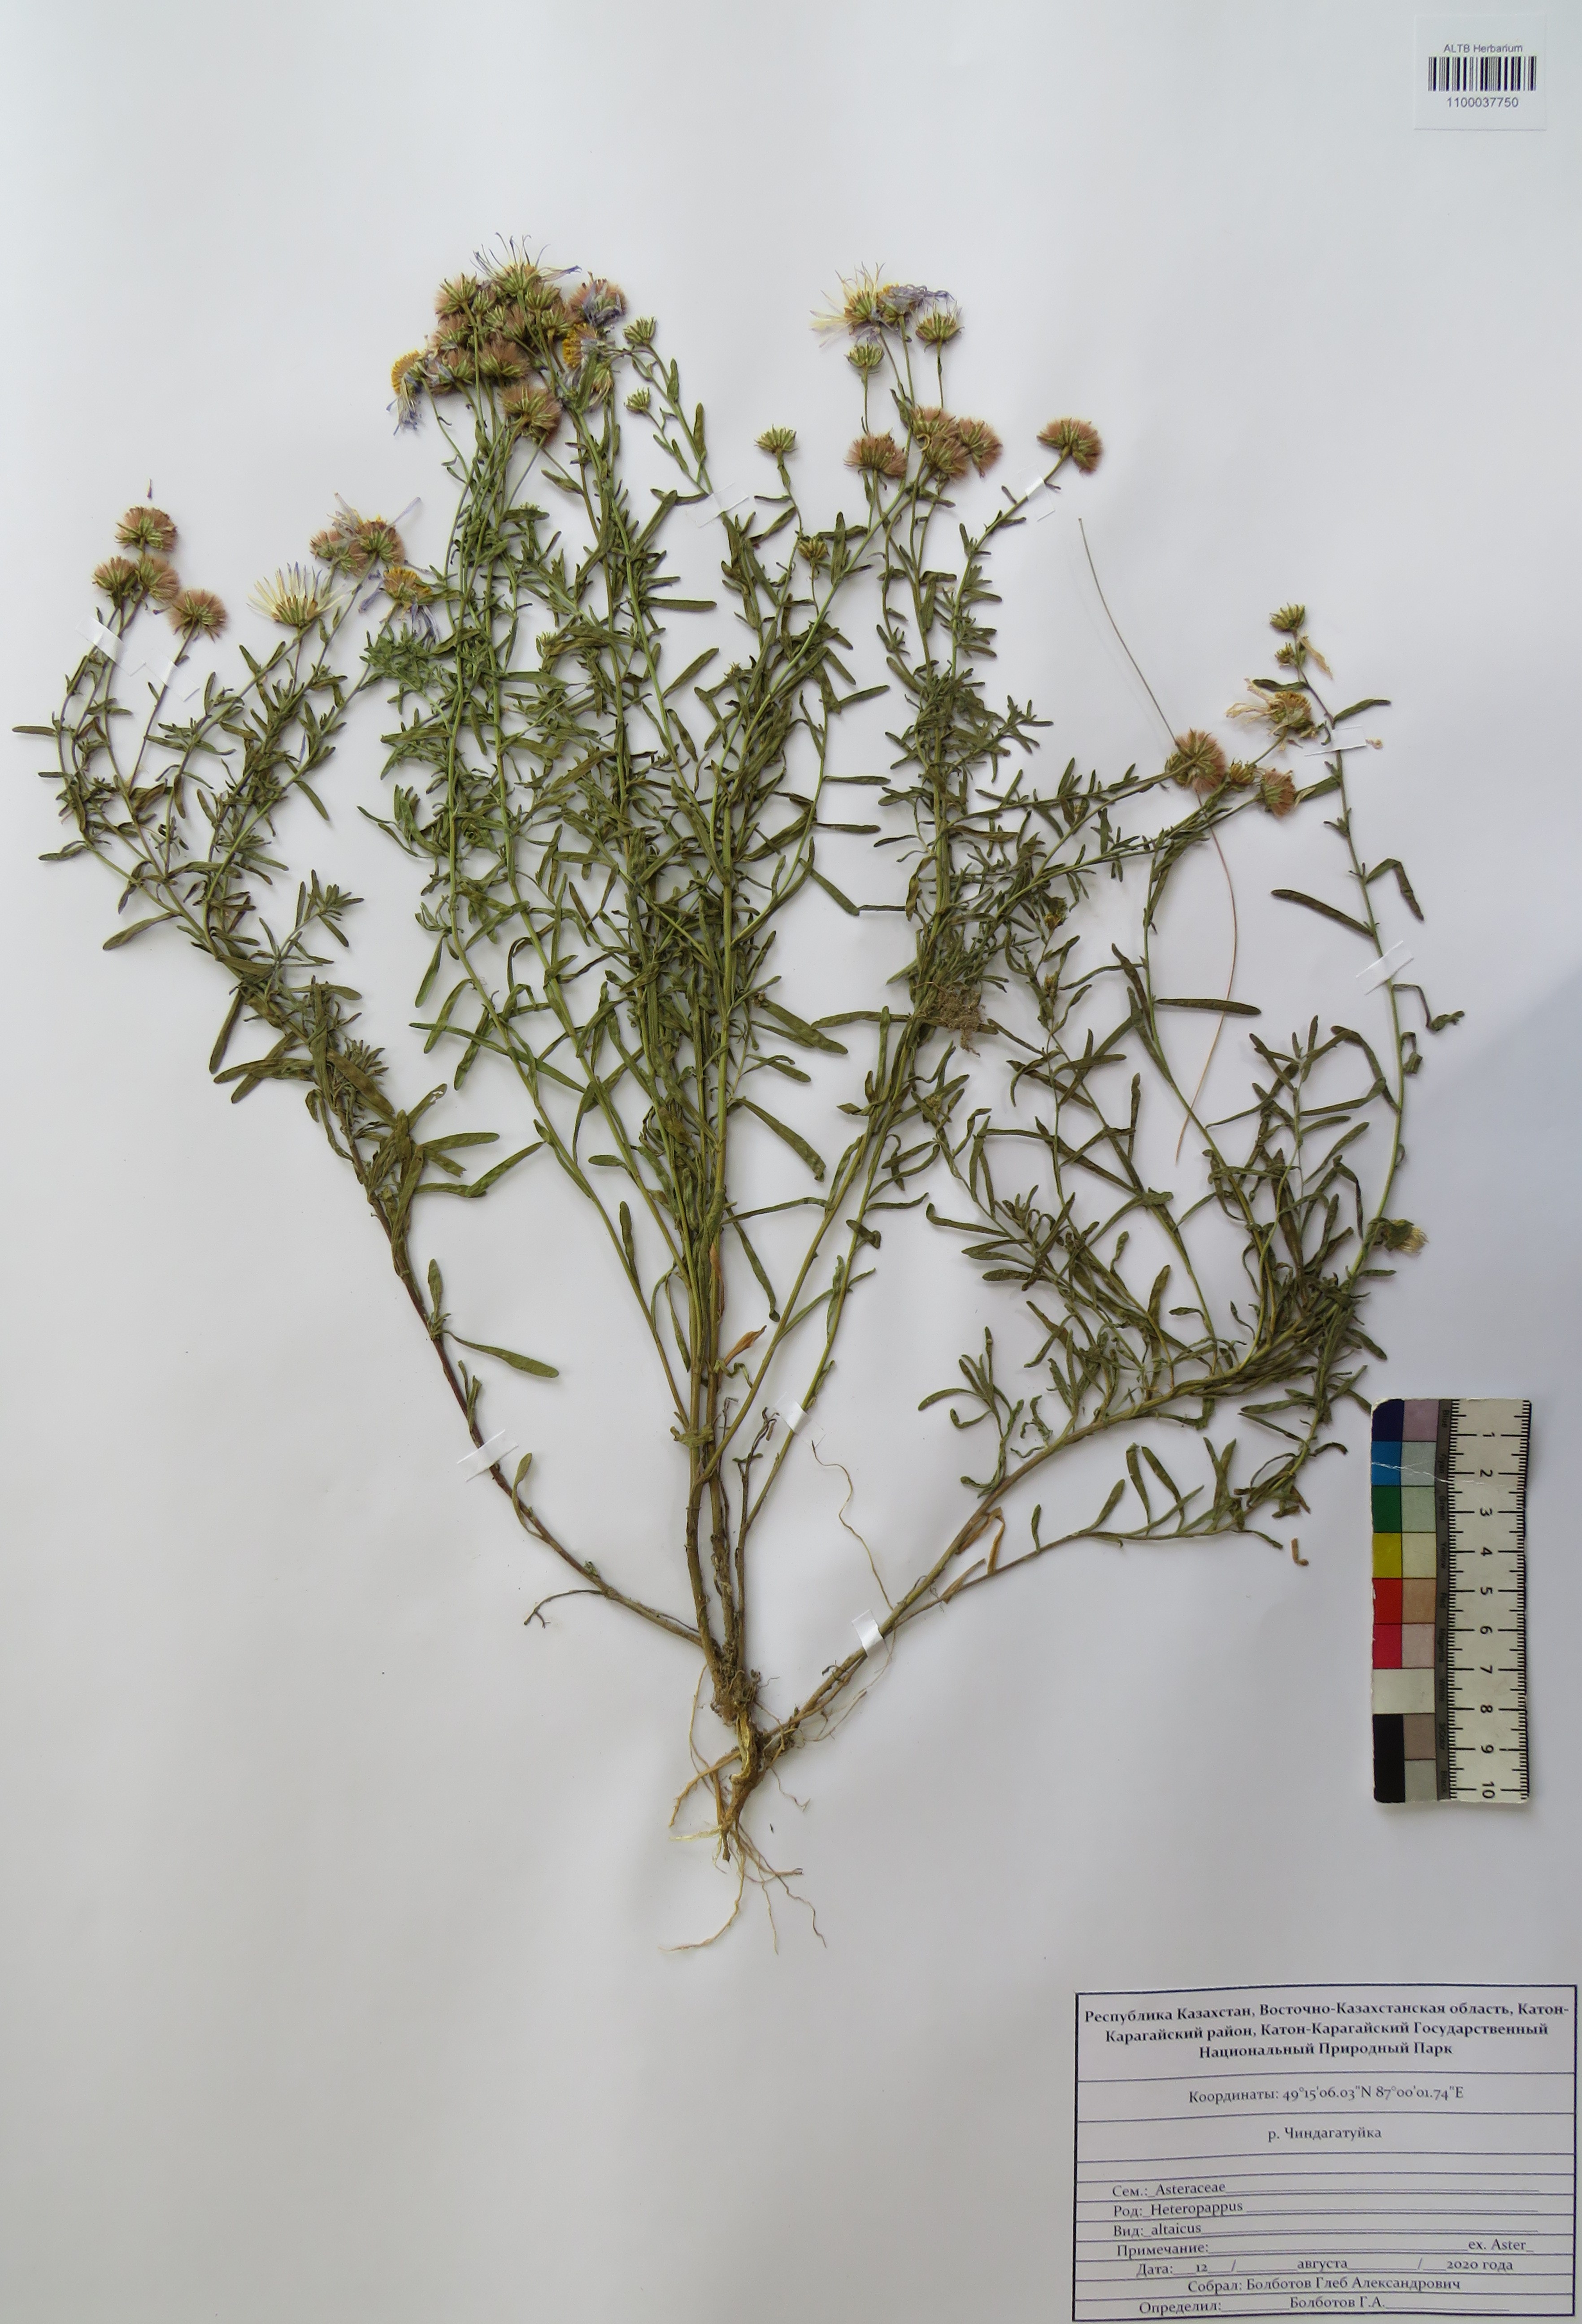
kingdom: Plantae
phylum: Tracheophyta
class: Magnoliopsida
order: Asterales
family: Asteraceae
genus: Heteropappus
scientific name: Heteropappus altaicus
